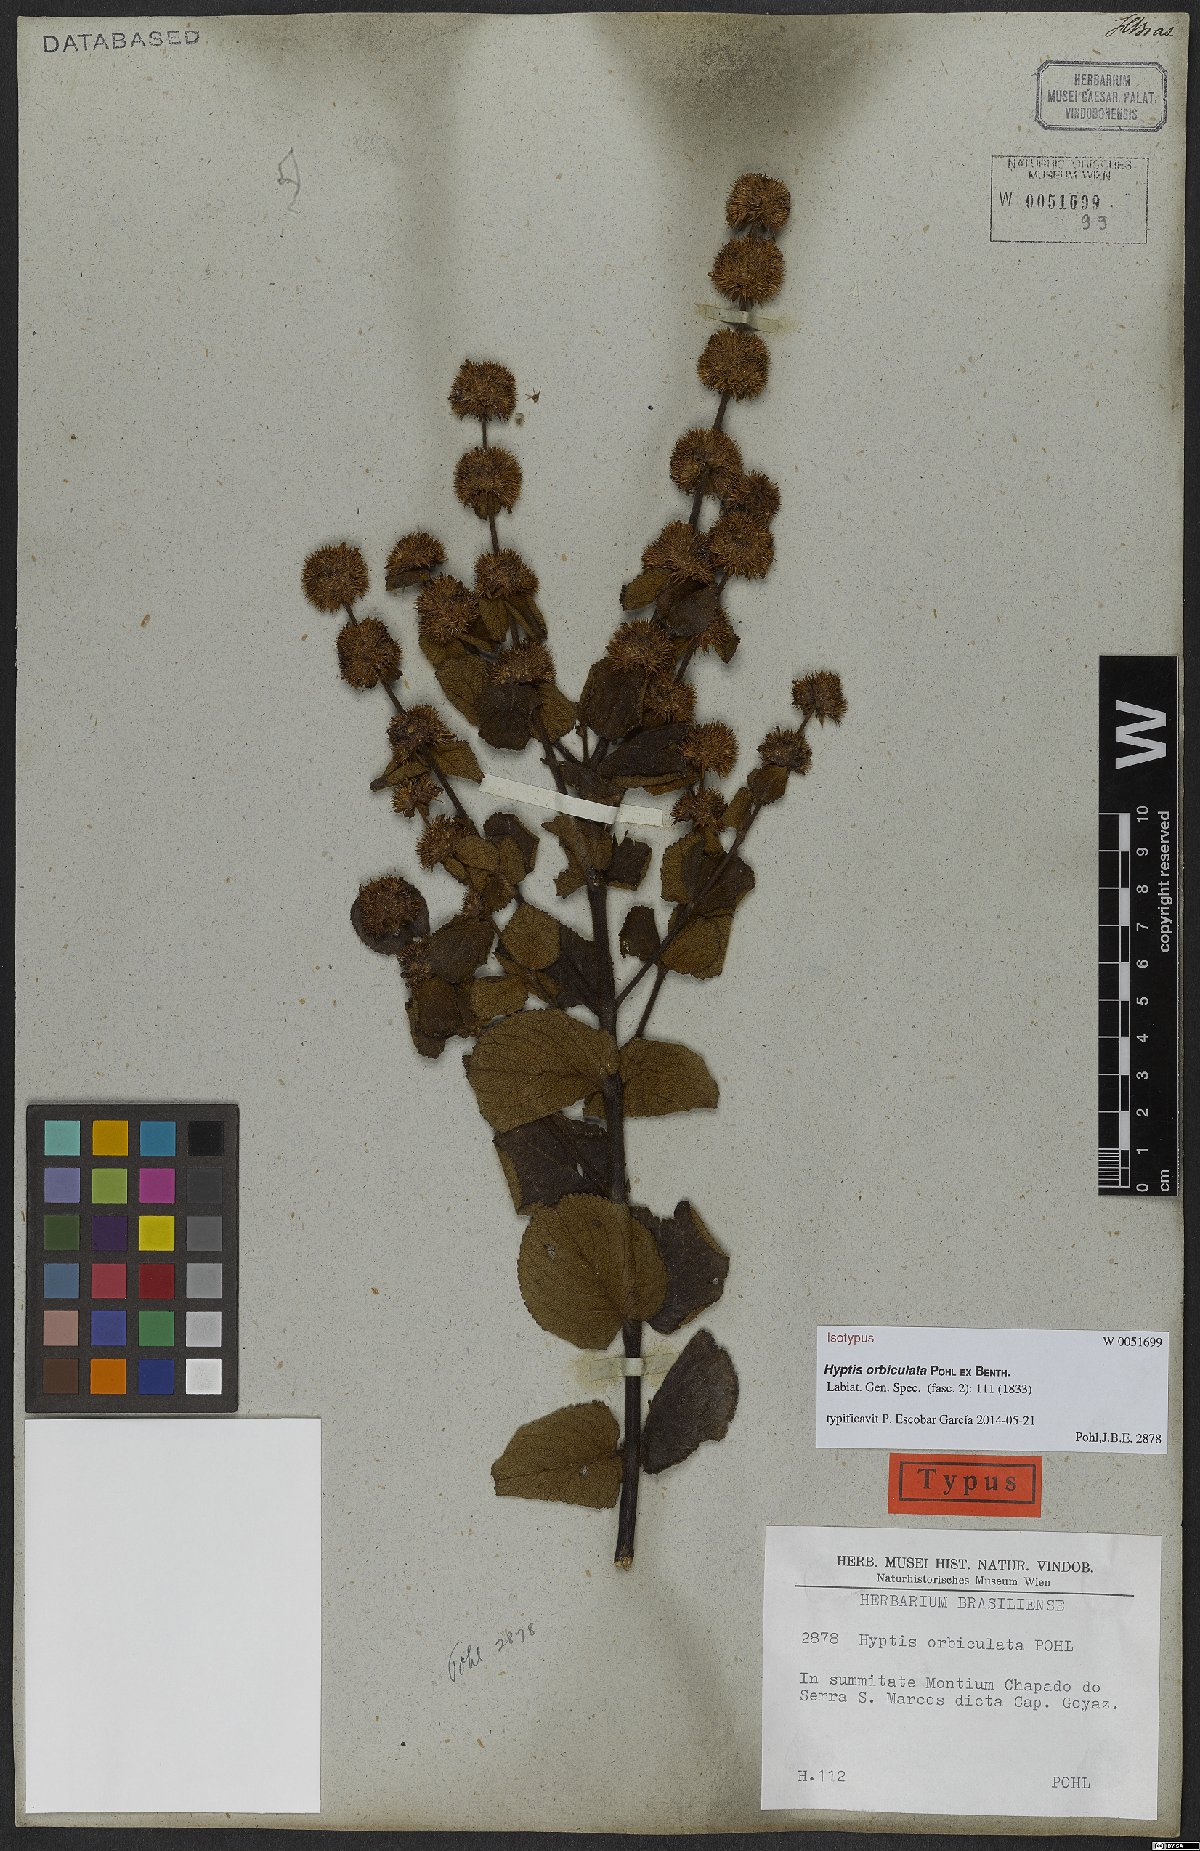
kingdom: Plantae
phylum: Tracheophyta
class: Magnoliopsida
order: Lamiales
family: Lamiaceae
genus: Hyptis
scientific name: Hyptis orbiculata
